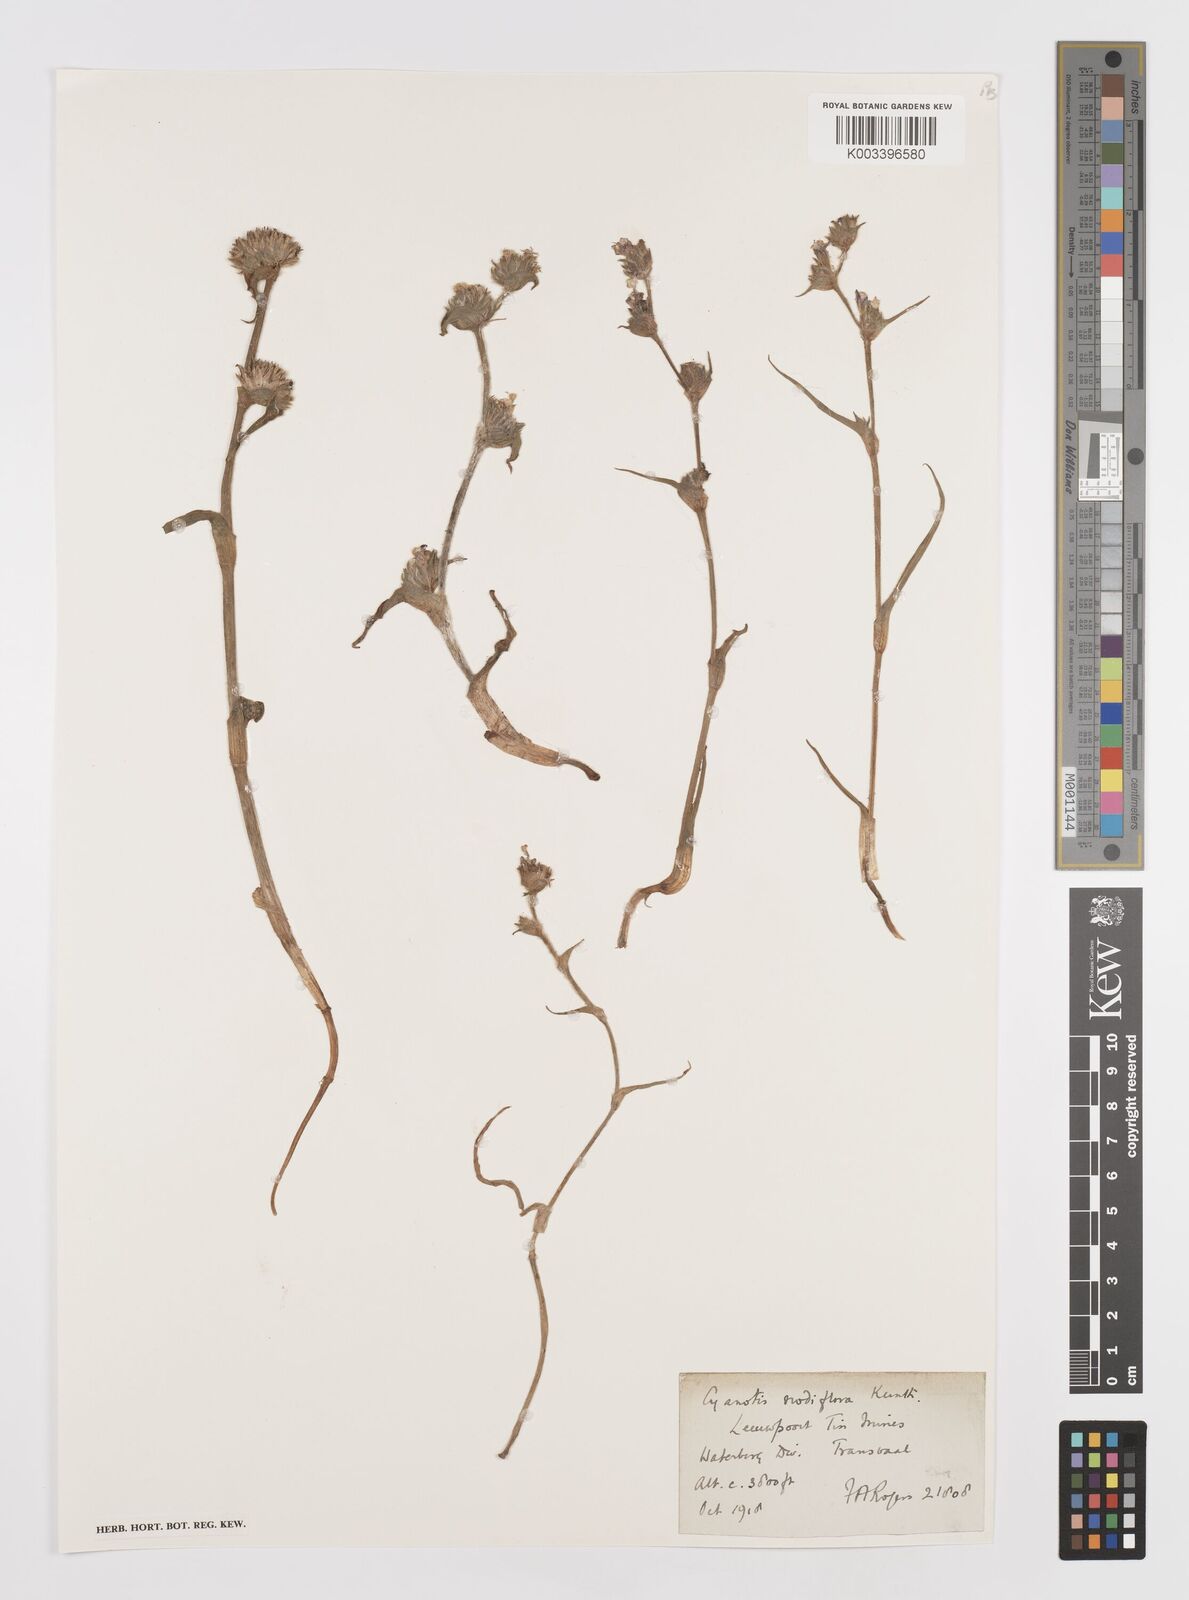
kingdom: Plantae
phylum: Tracheophyta
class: Liliopsida
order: Commelinales
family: Commelinaceae
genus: Cyanotis
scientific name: Cyanotis speciosa
